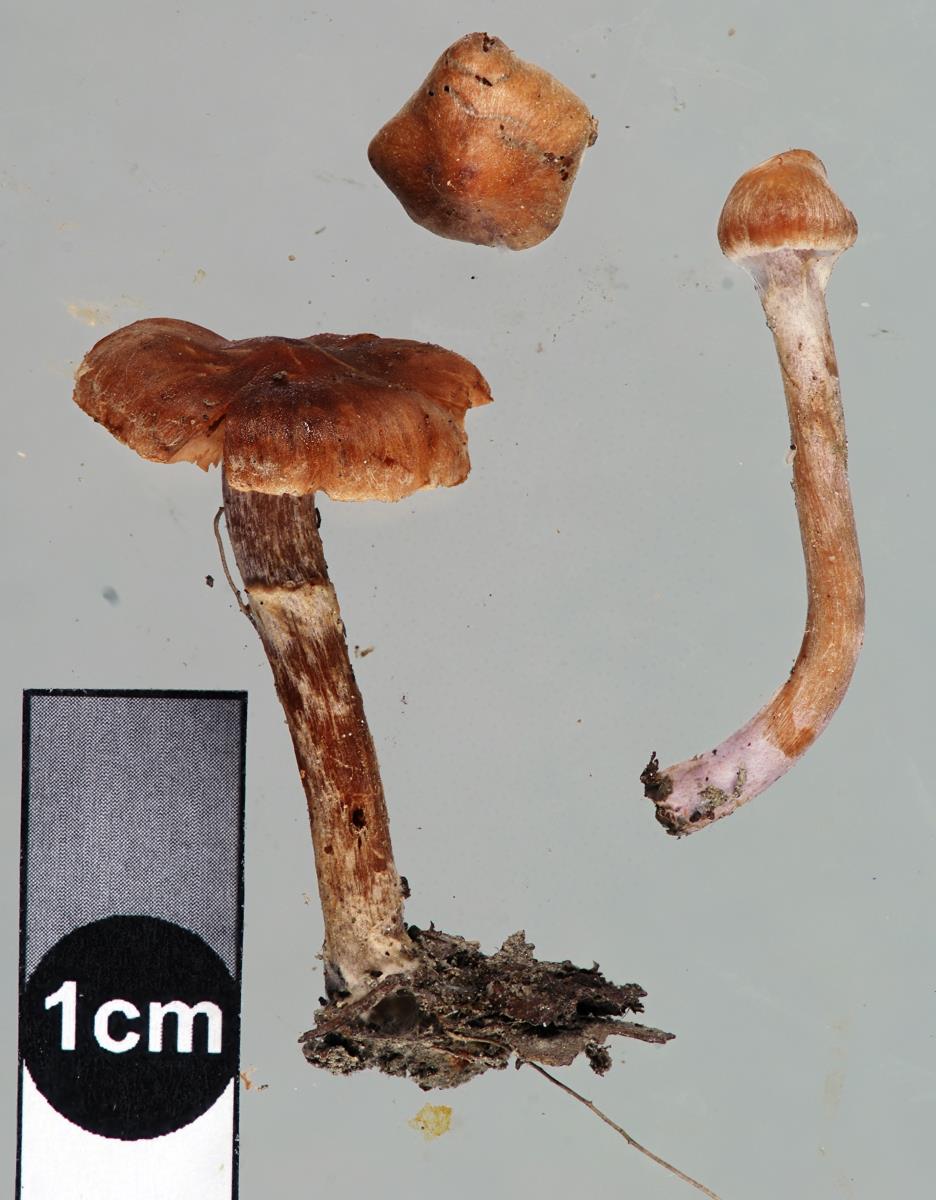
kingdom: Fungi
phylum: Basidiomycota
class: Agaricomycetes
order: Agaricales
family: Cortinariaceae
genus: Cortinarius
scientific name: Cortinarius pseudofallax
